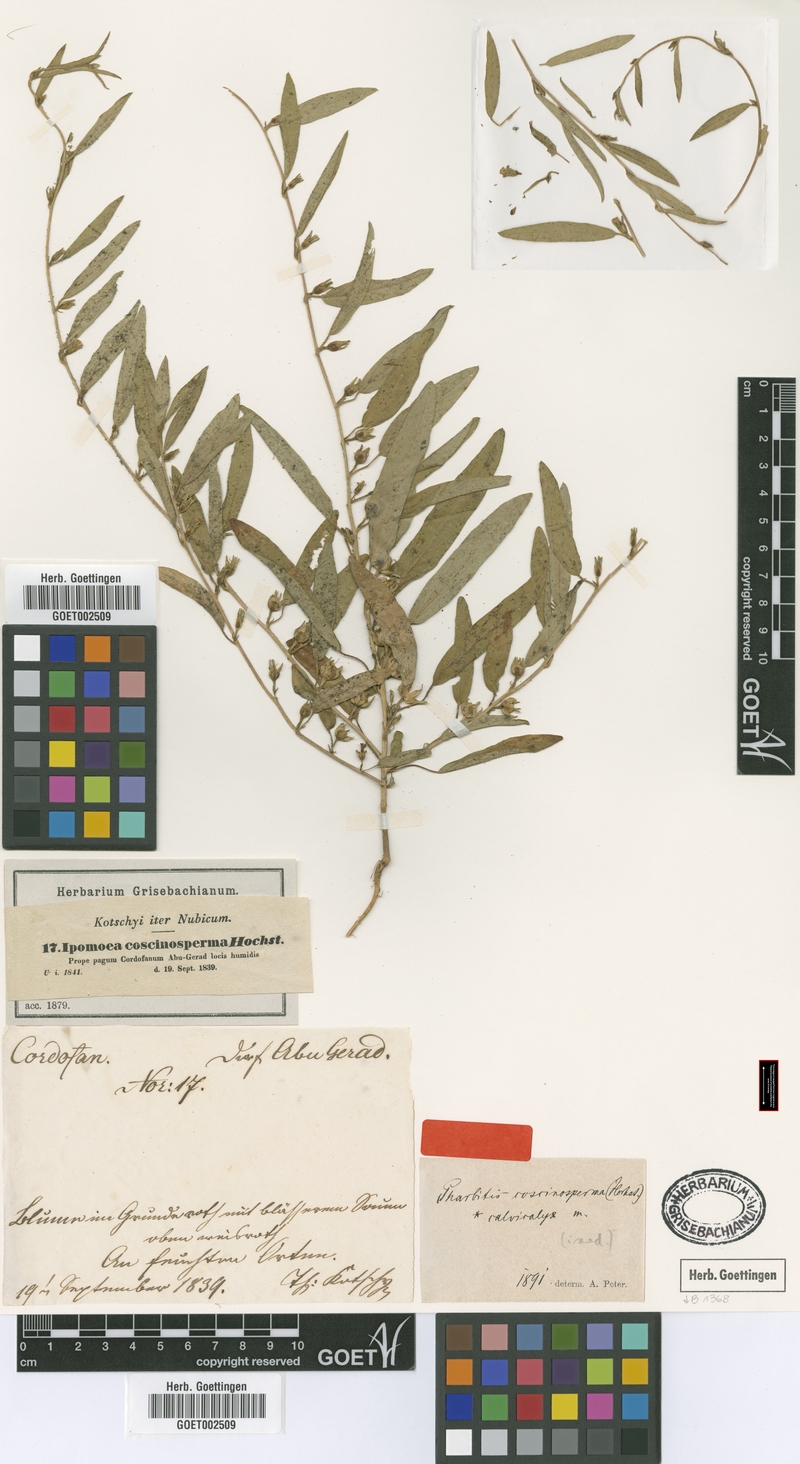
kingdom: Plantae
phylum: Tracheophyta
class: Magnoliopsida
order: Solanales
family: Convolvulaceae
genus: Ipomoea
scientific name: Ipomoea coscinosperma
